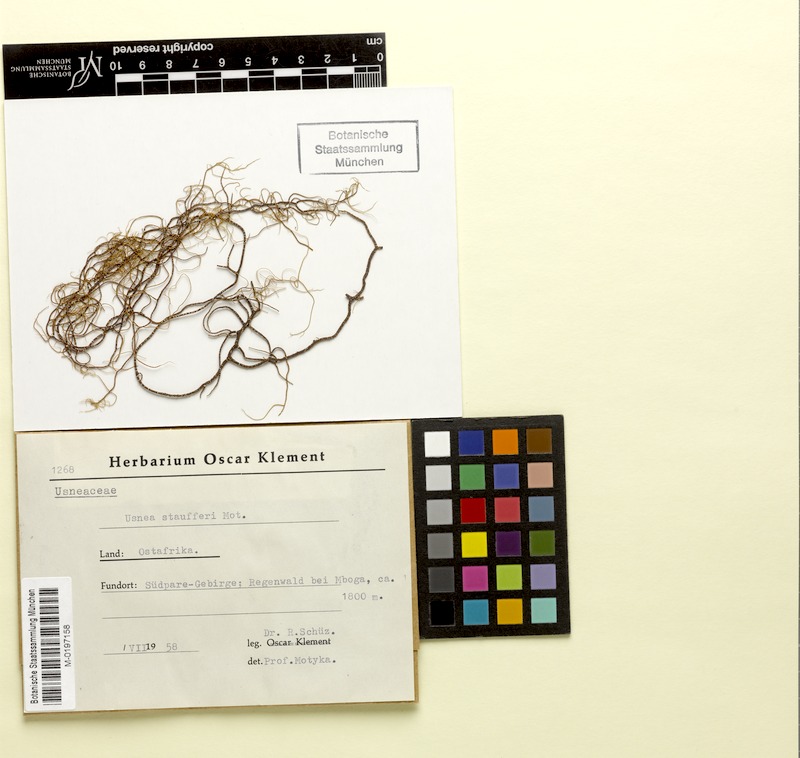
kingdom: Fungi
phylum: Ascomycota
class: Lecanoromycetes
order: Lecanorales
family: Parmeliaceae
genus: Usnea
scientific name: Usnea
